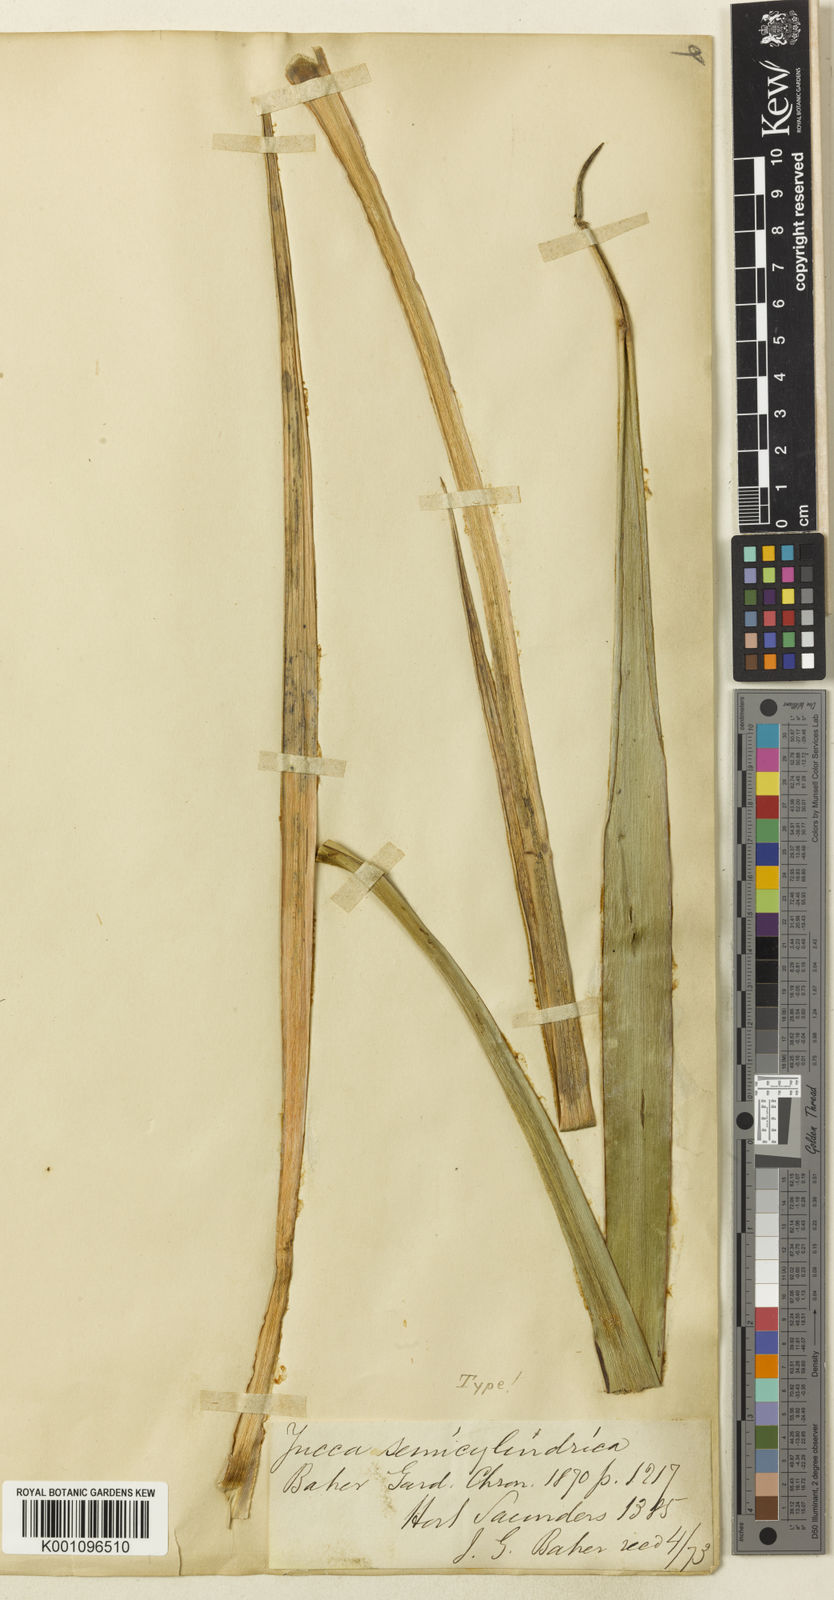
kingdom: Plantae
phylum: Tracheophyta
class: Liliopsida
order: Asparagales
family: Asparagaceae
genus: Yucca
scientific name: Yucca gloriosa
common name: Spanish-dagger
